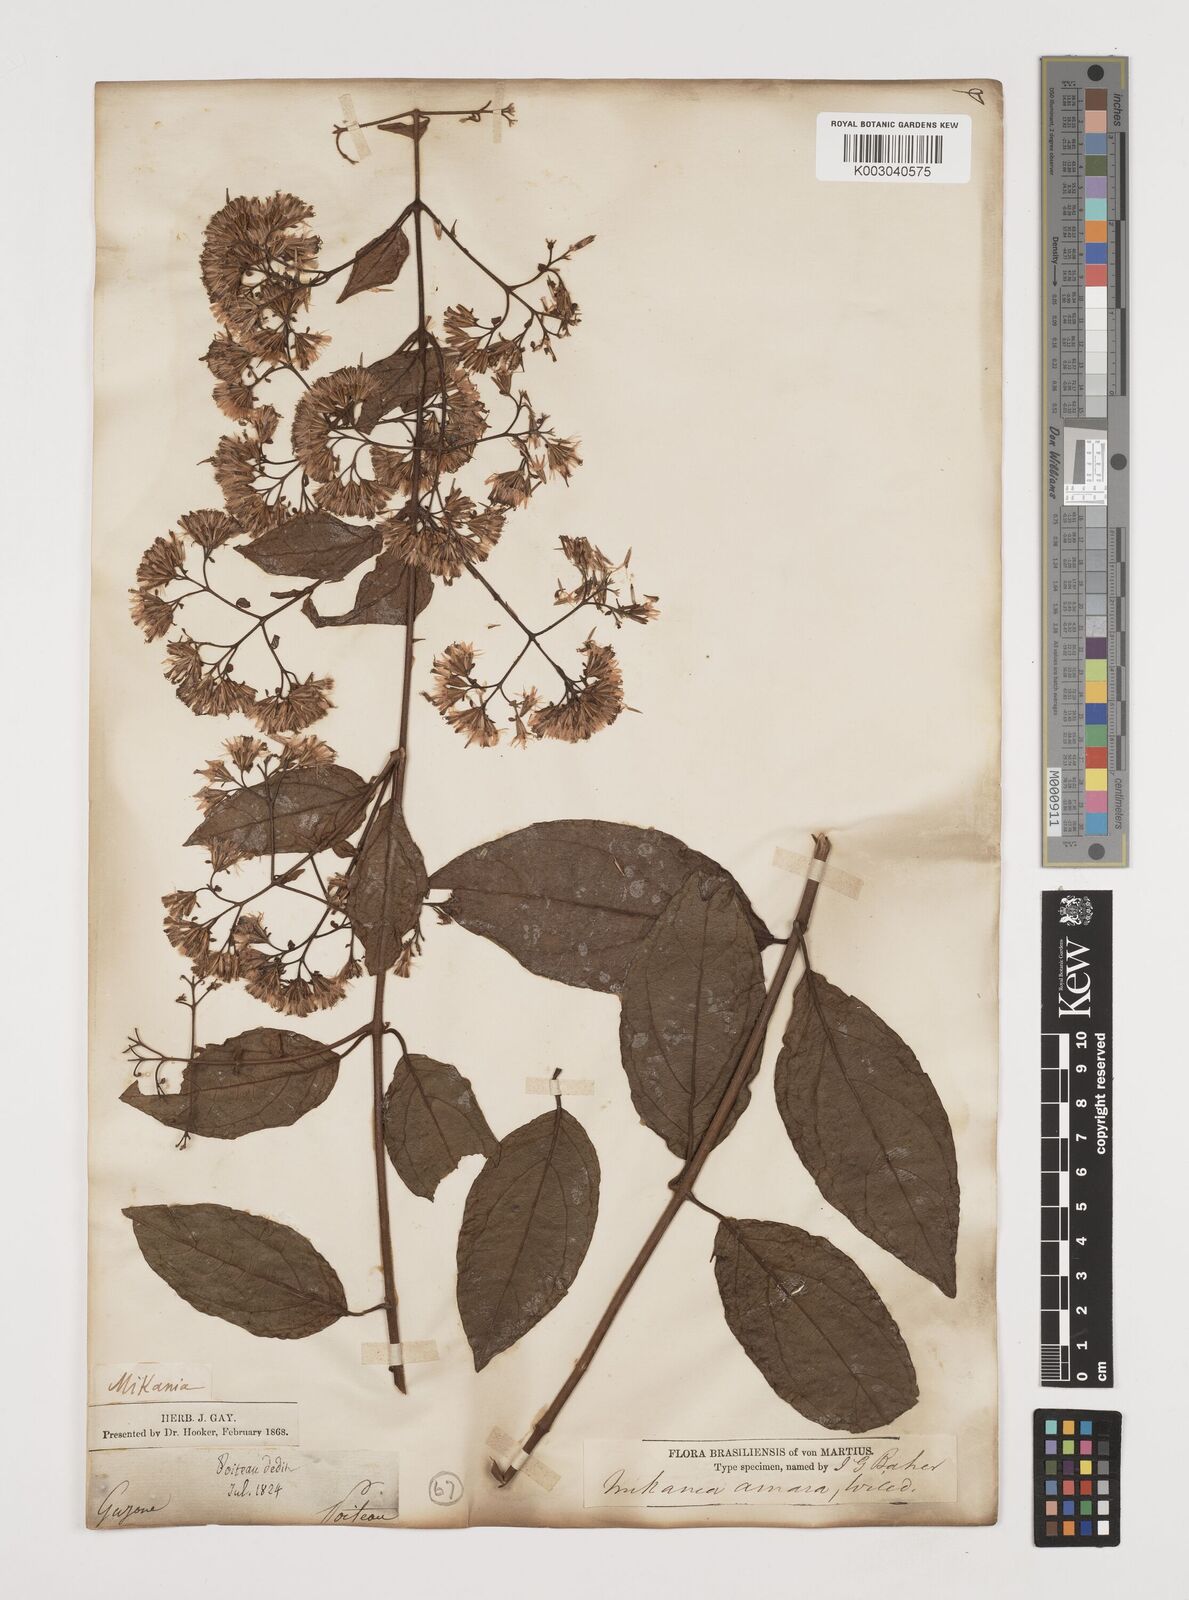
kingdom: Plantae
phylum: Tracheophyta
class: Magnoliopsida
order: Asterales
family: Asteraceae
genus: Mikania
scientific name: Mikania parviflora
